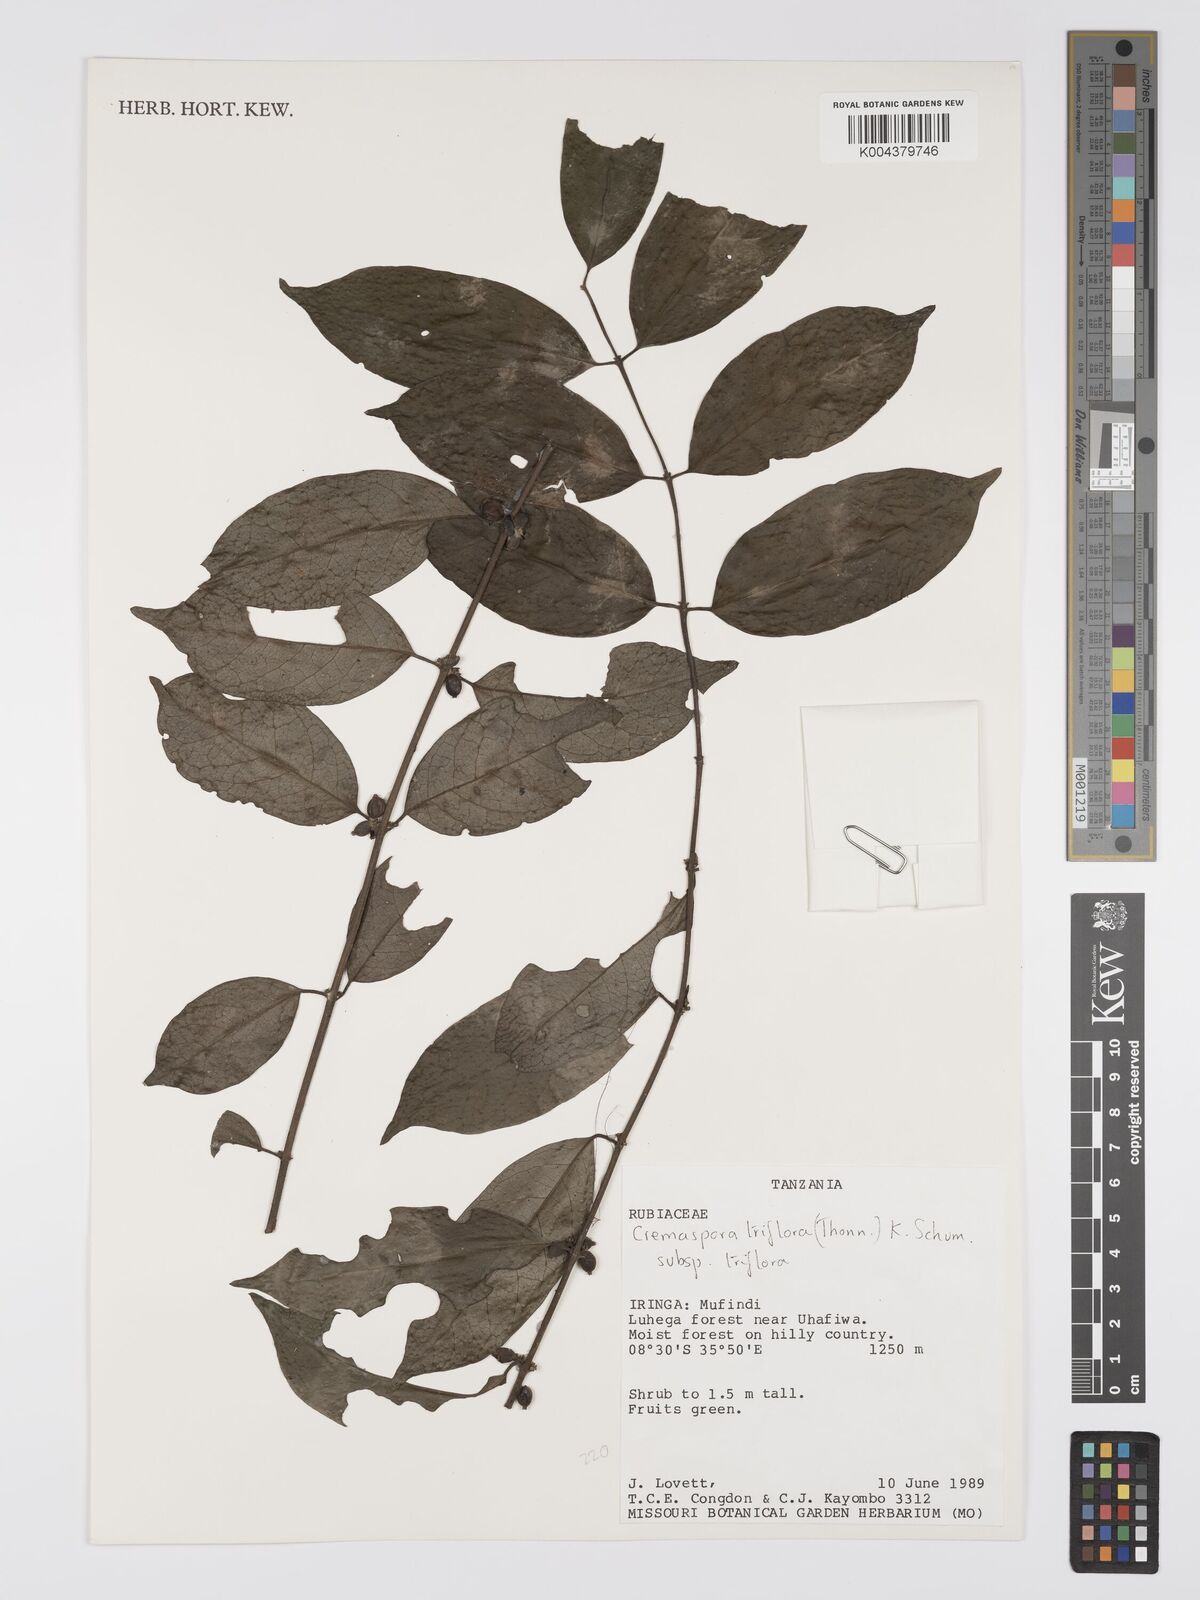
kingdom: Plantae
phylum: Tracheophyta
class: Magnoliopsida
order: Gentianales
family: Rubiaceae
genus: Cremaspora
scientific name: Cremaspora triflora
